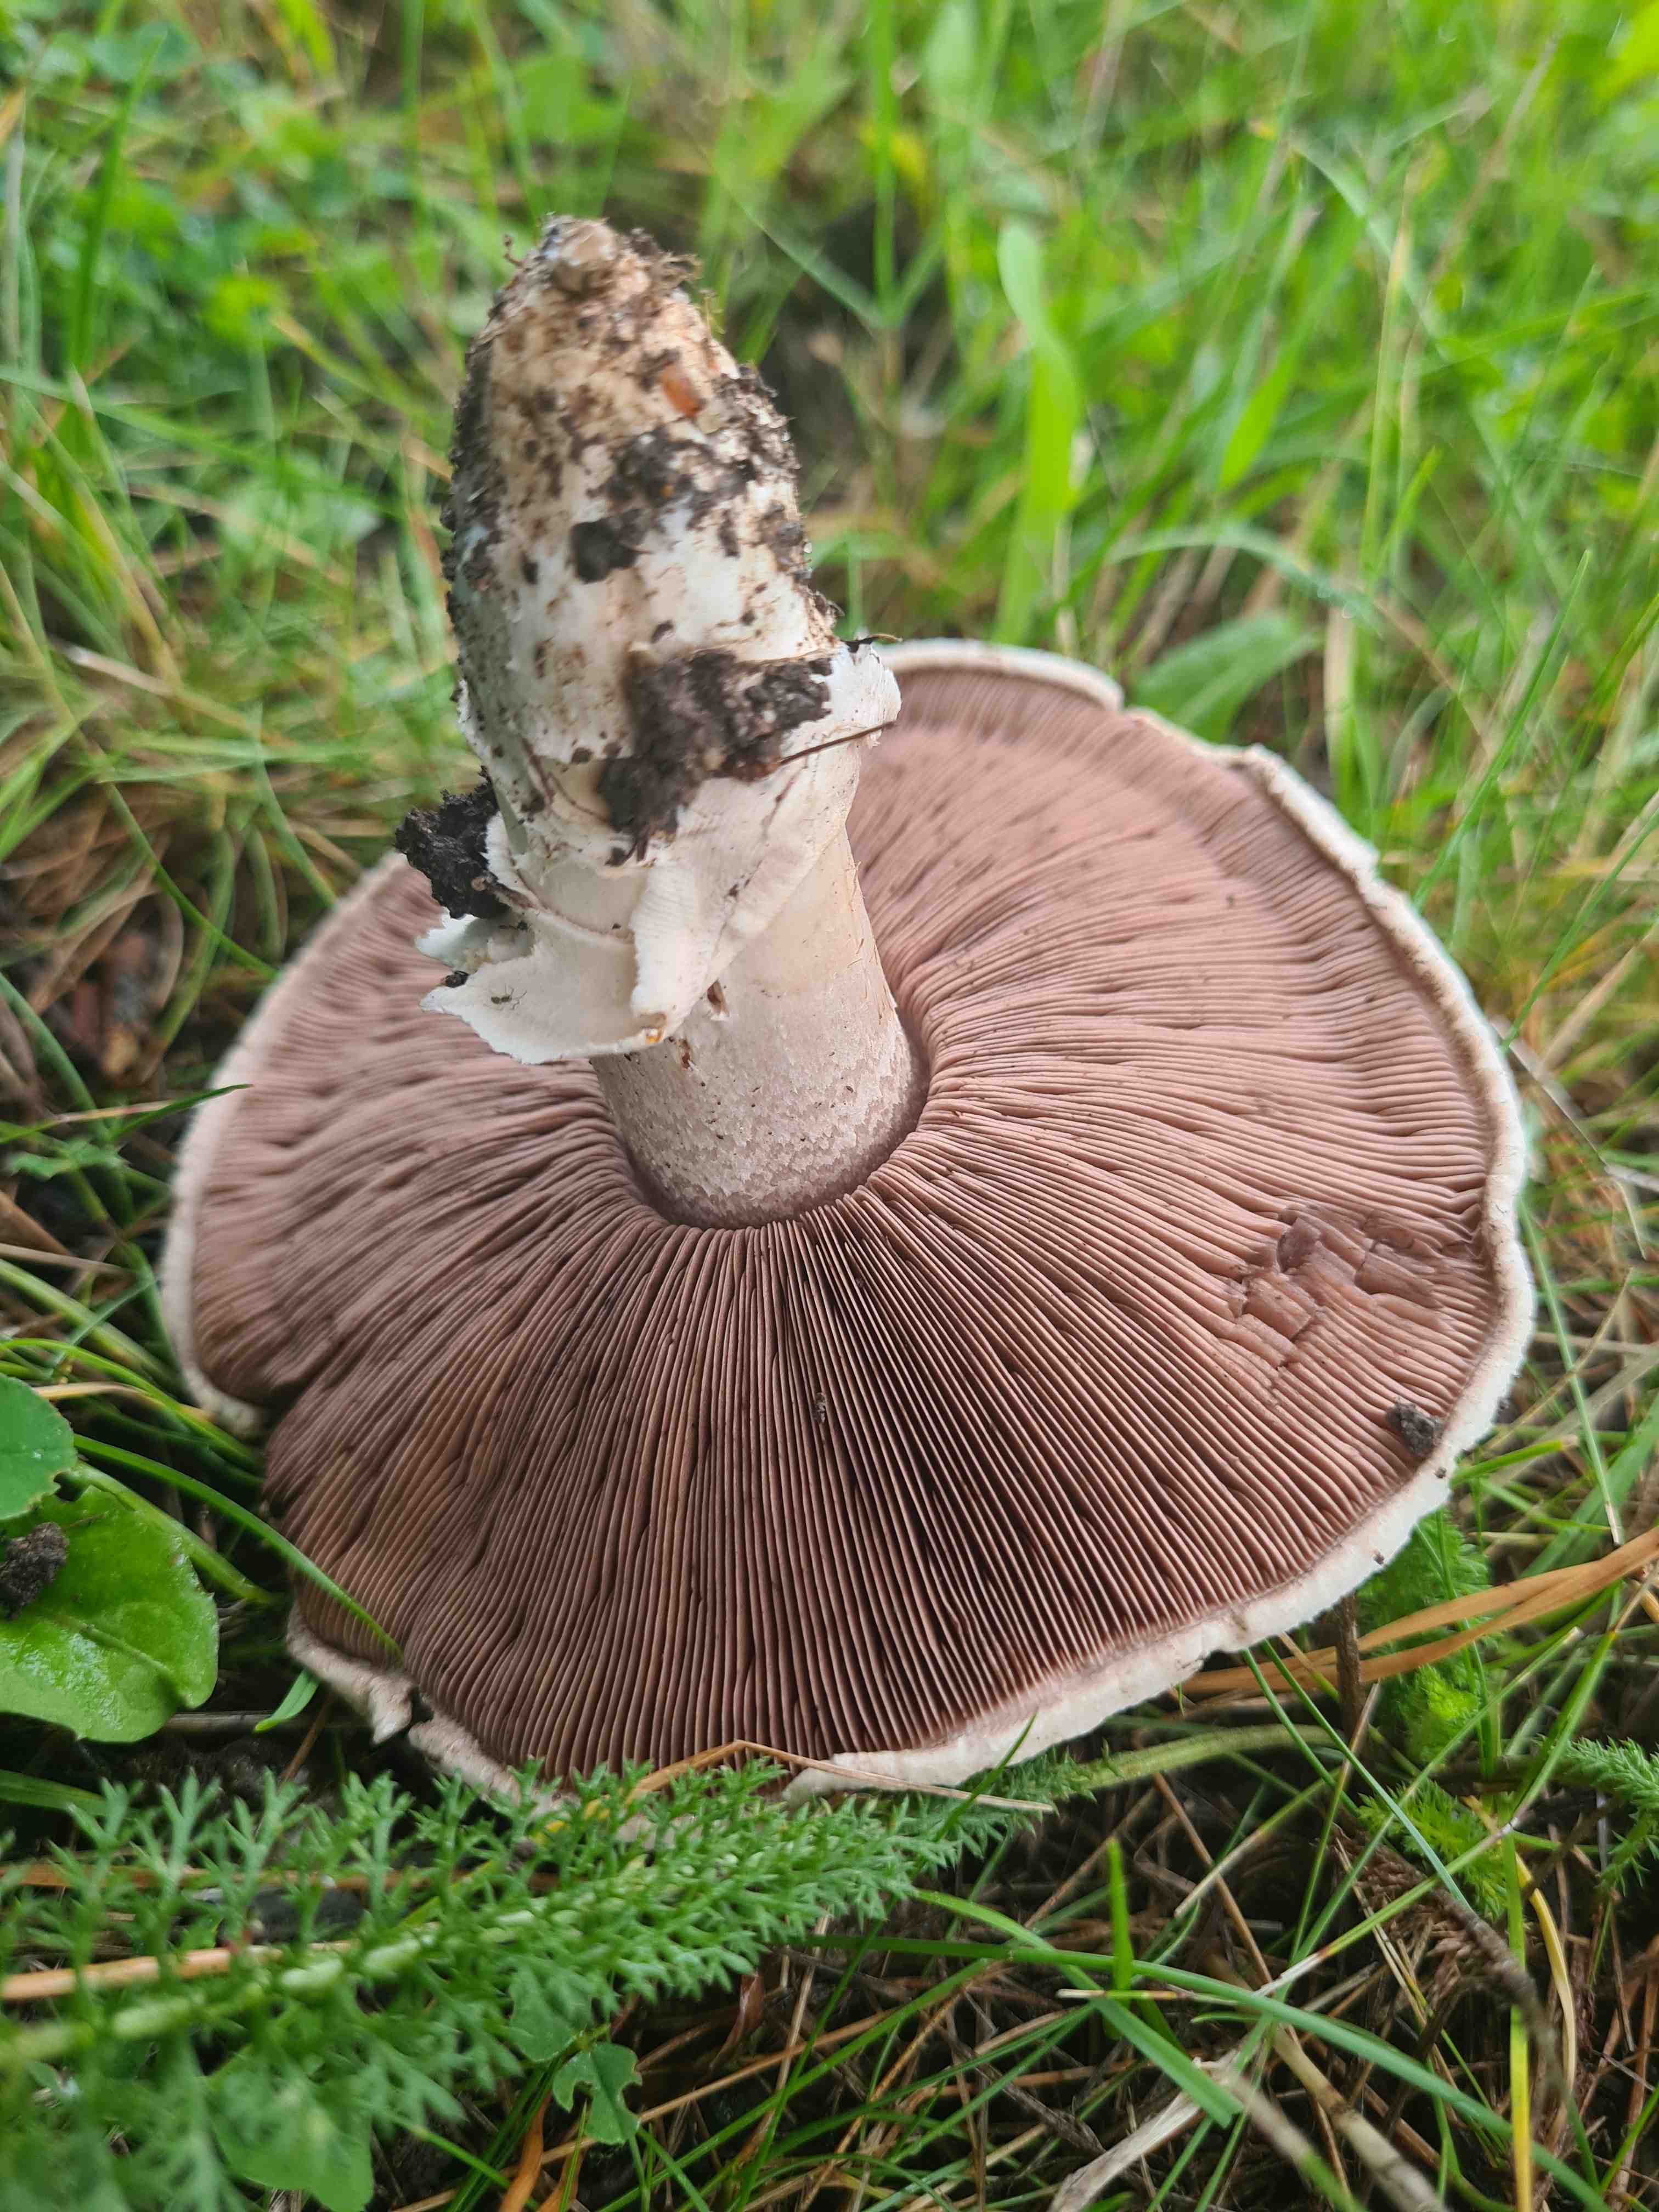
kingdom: Fungi
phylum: Basidiomycota
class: Agaricomycetes
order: Agaricales
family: Agaricaceae
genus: Agaricus
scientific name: Agaricus bitorquis
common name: vej-champignon
